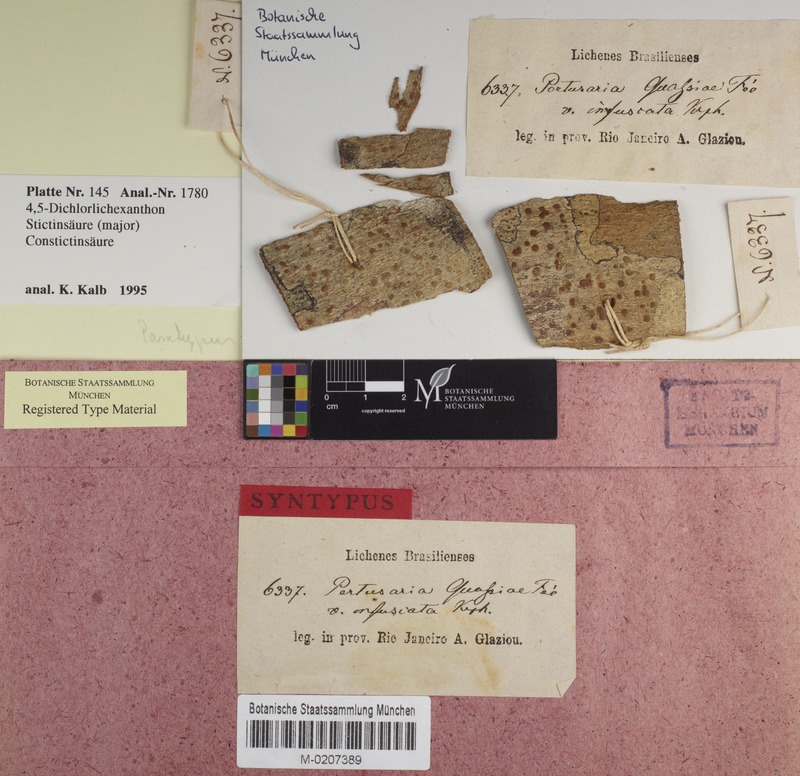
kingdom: Fungi
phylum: Ascomycota
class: Lecanoromycetes
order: Pertusariales
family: Pertusariaceae
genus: Pertusaria
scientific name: Pertusaria quassiae
